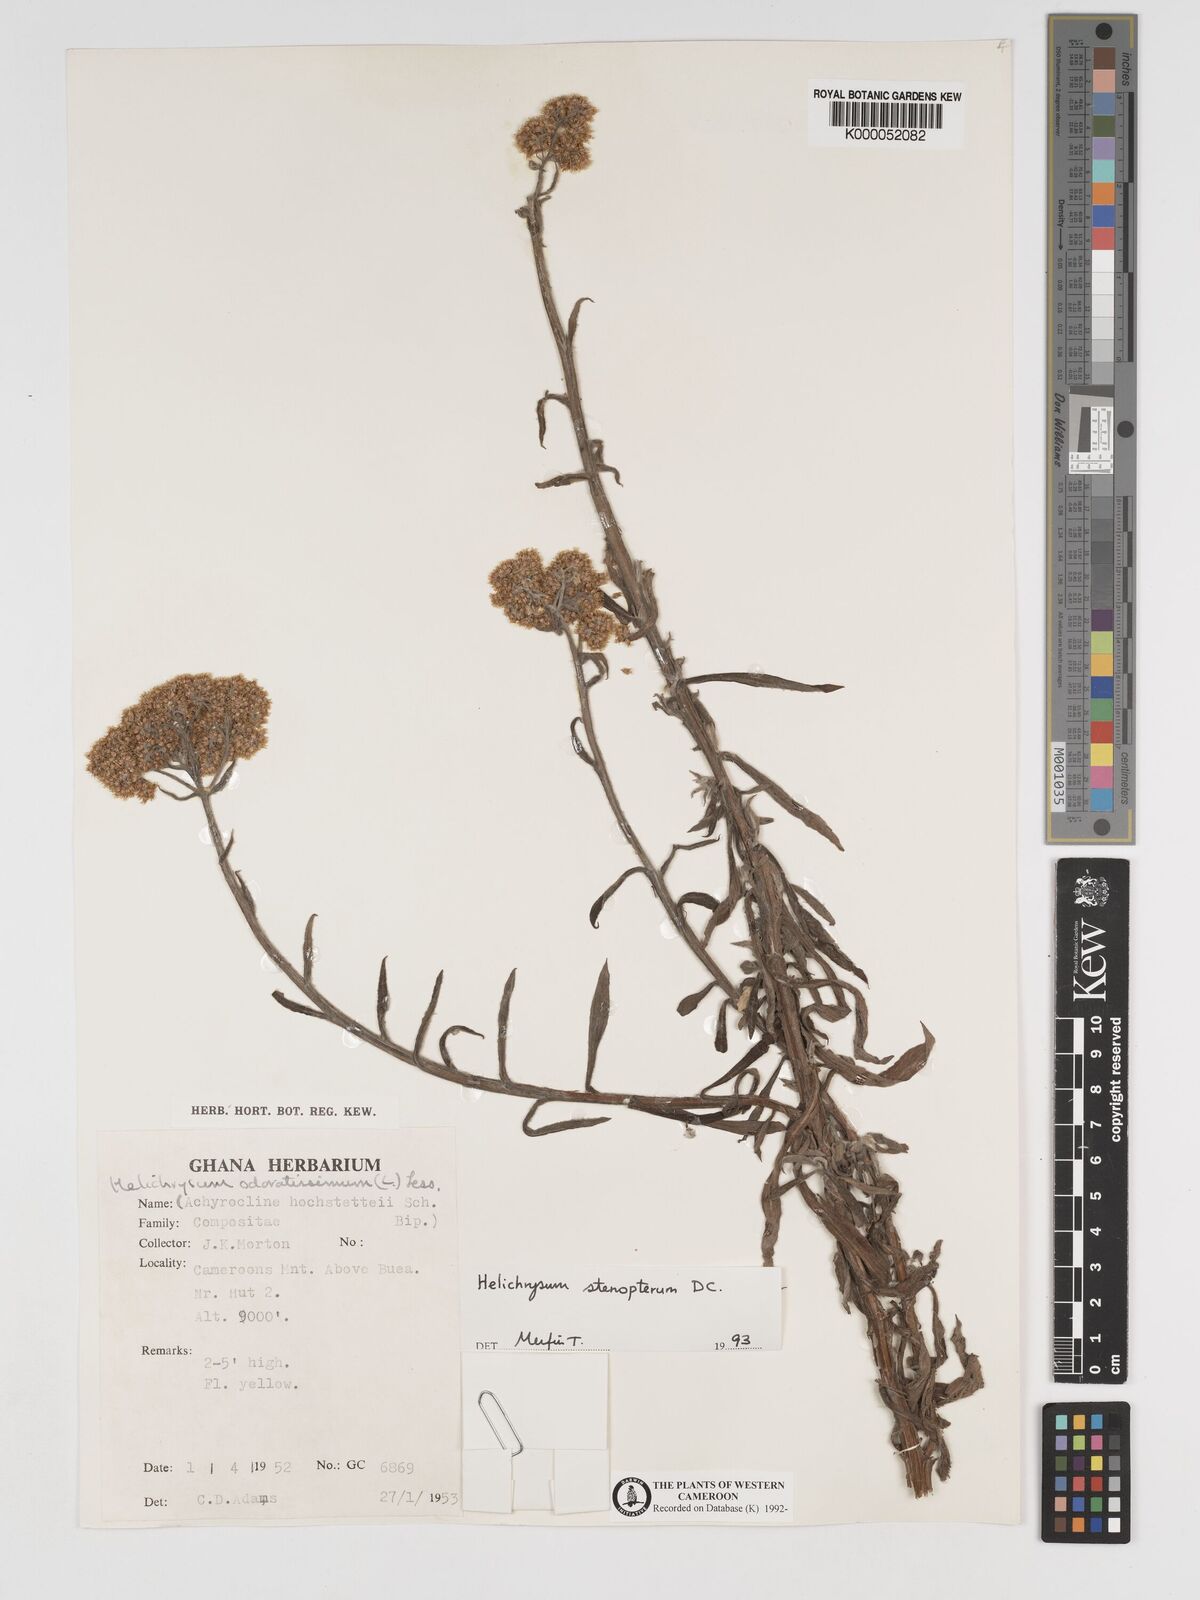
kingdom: Plantae
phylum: Tracheophyta
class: Magnoliopsida
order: Asterales
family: Asteraceae
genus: Helichrysum
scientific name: Helichrysum stenopterum
